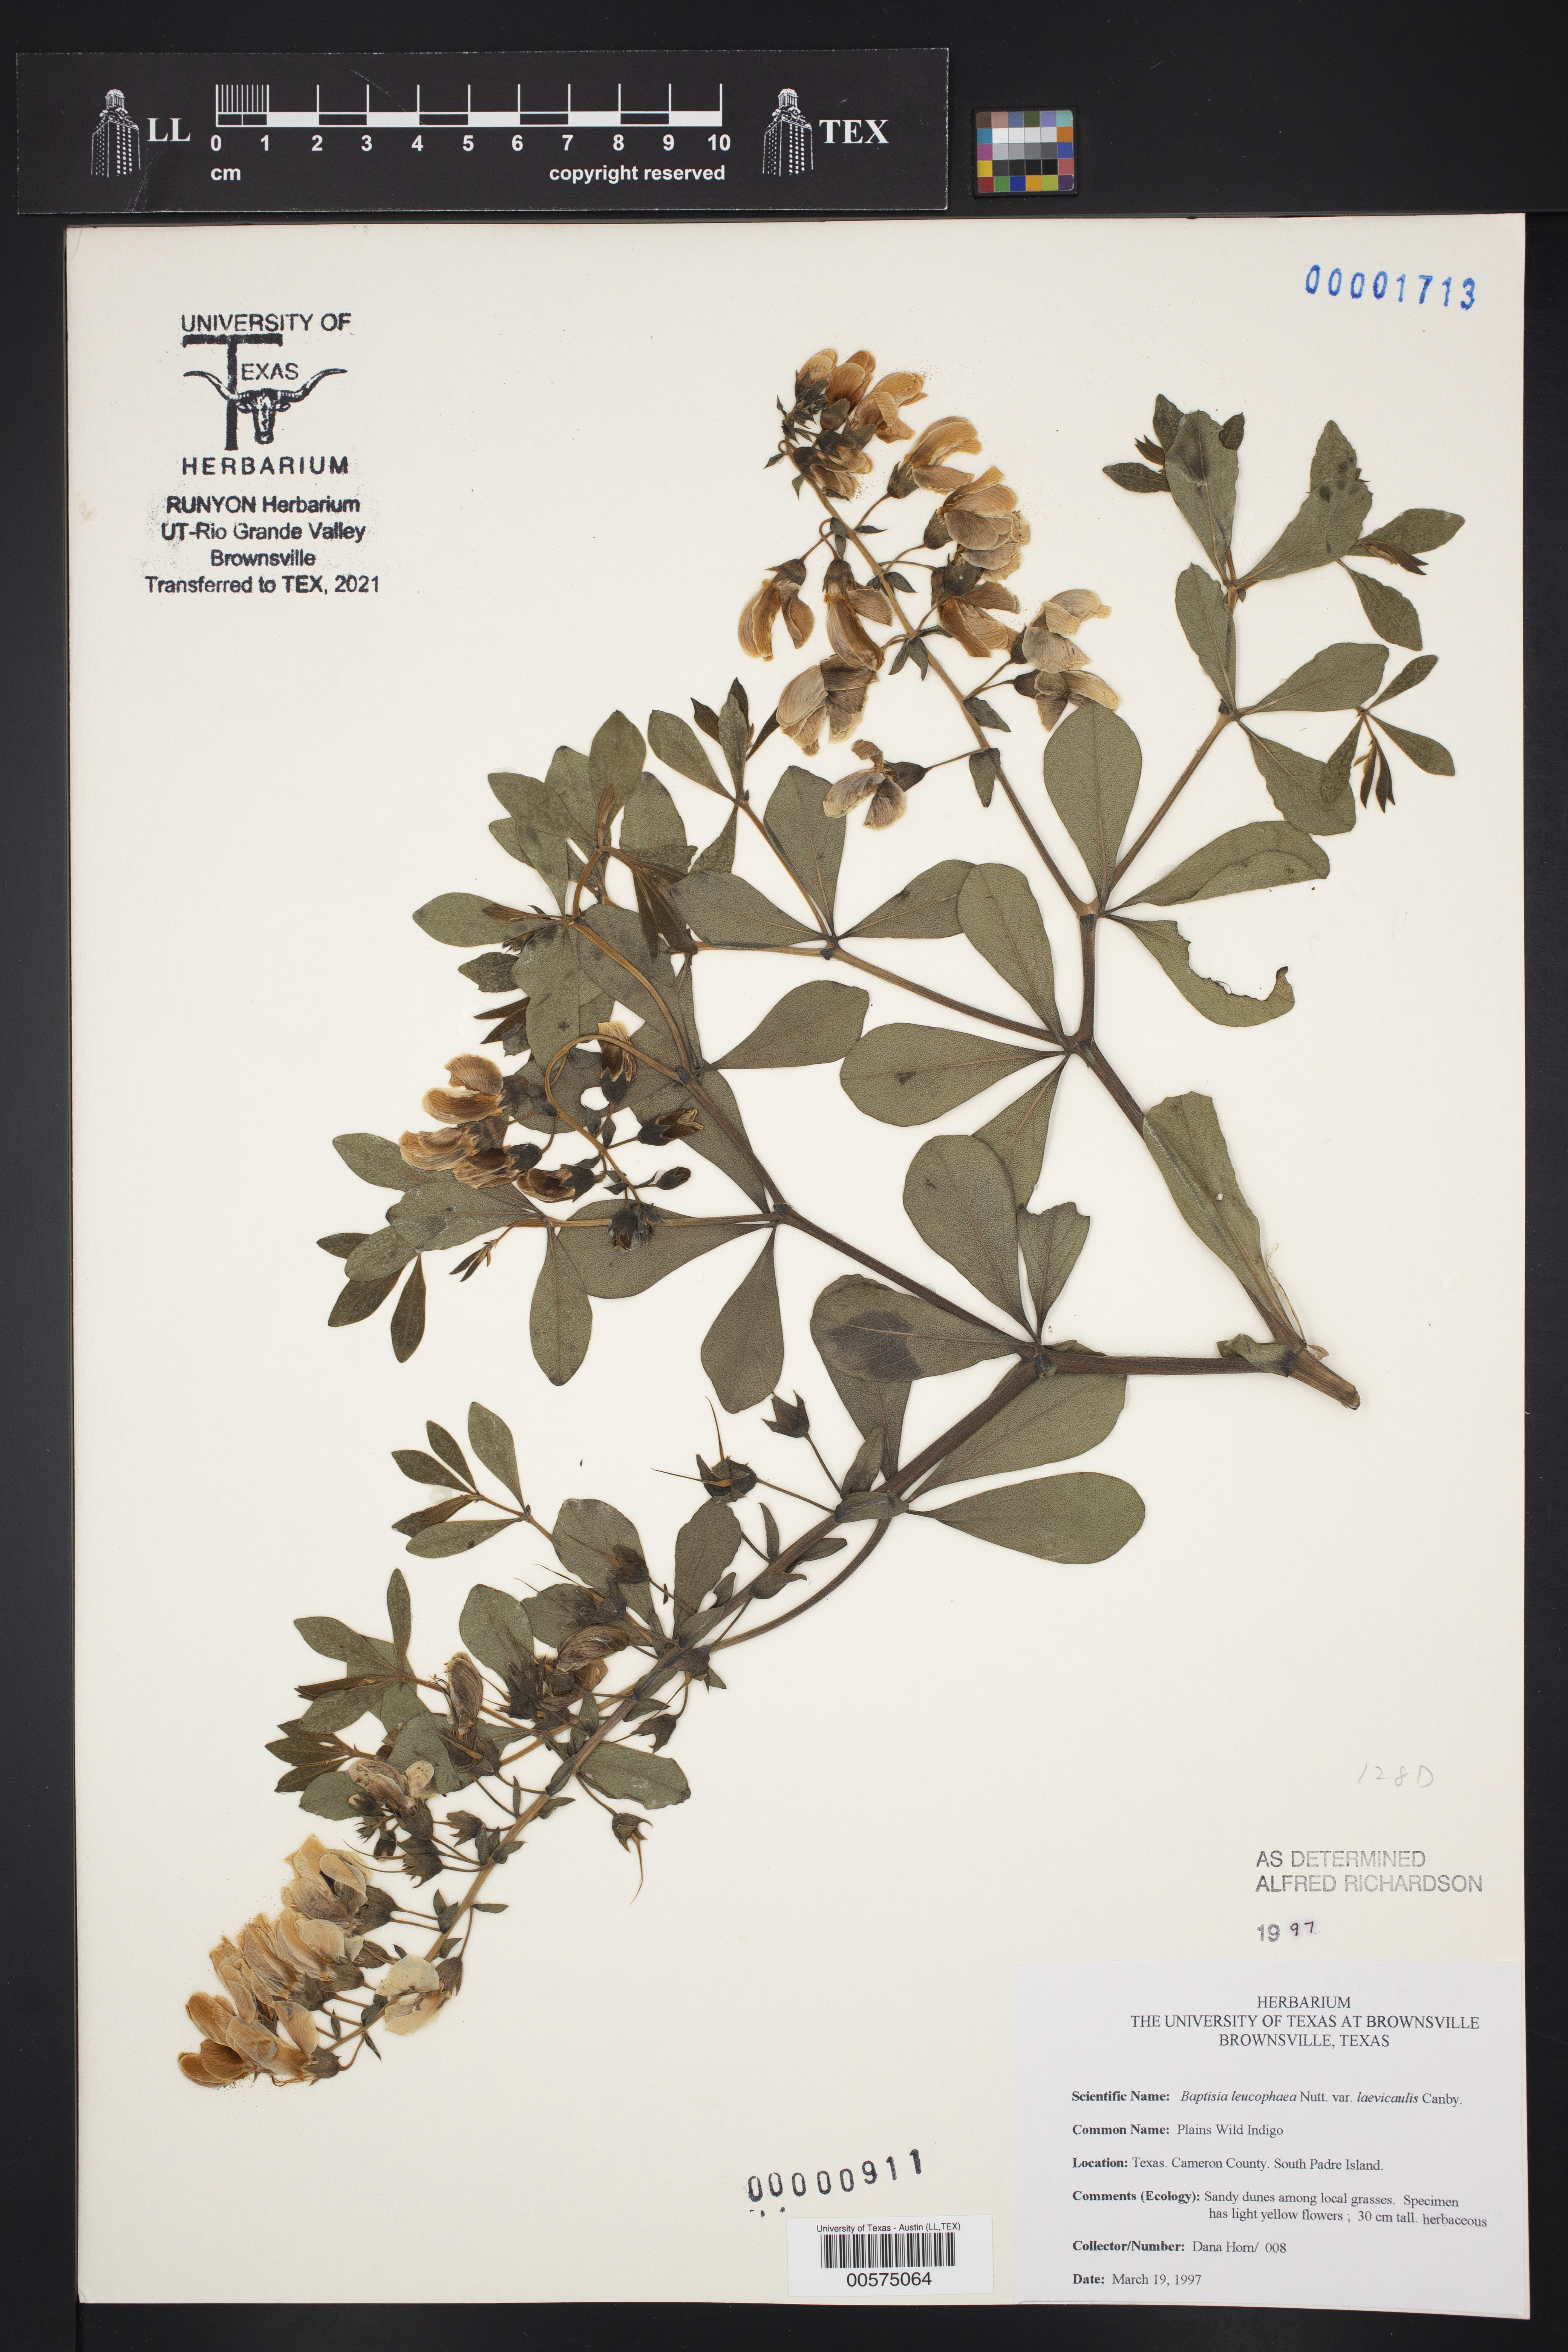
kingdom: Plantae
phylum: Tracheophyta
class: Magnoliopsida
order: Fabales
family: Fabaceae
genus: Baptisia
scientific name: Baptisia bracteata
